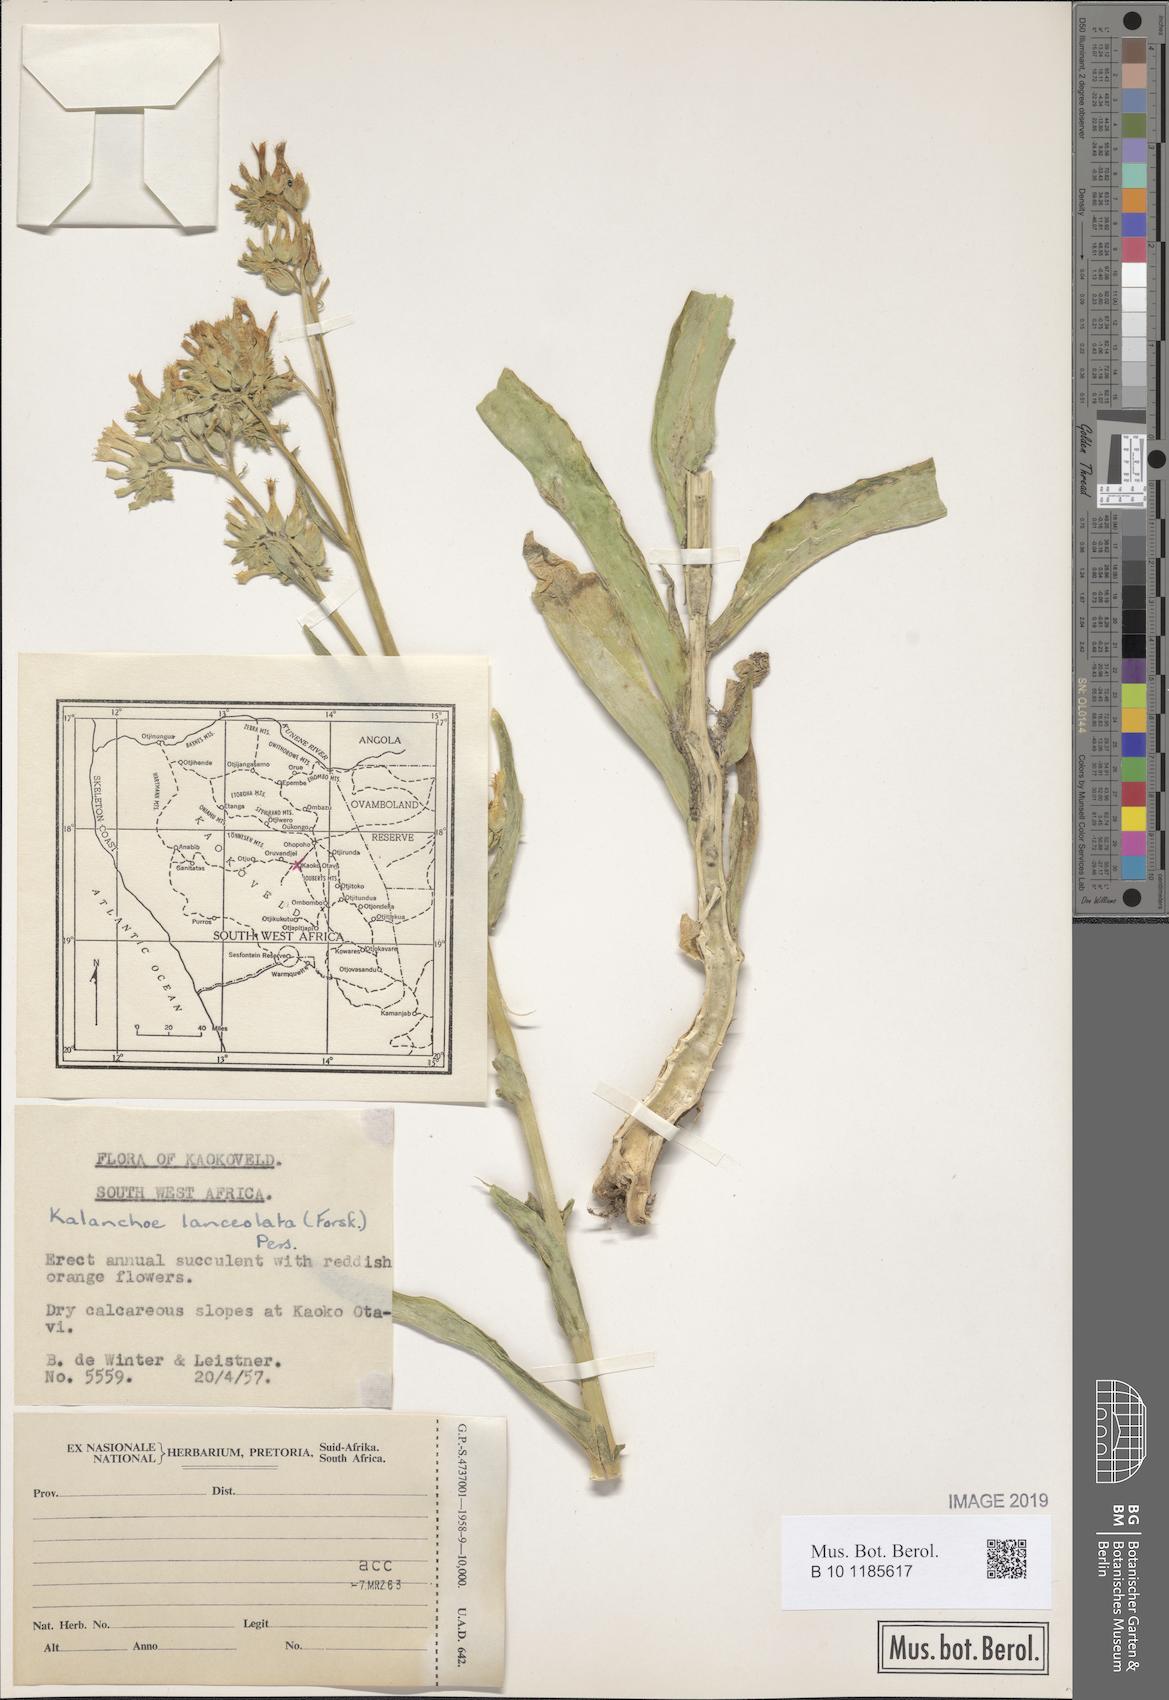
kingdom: Plantae
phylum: Tracheophyta
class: Magnoliopsida
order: Saxifragales
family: Crassulaceae
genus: Kalanchoe
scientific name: Kalanchoe lanceolata
